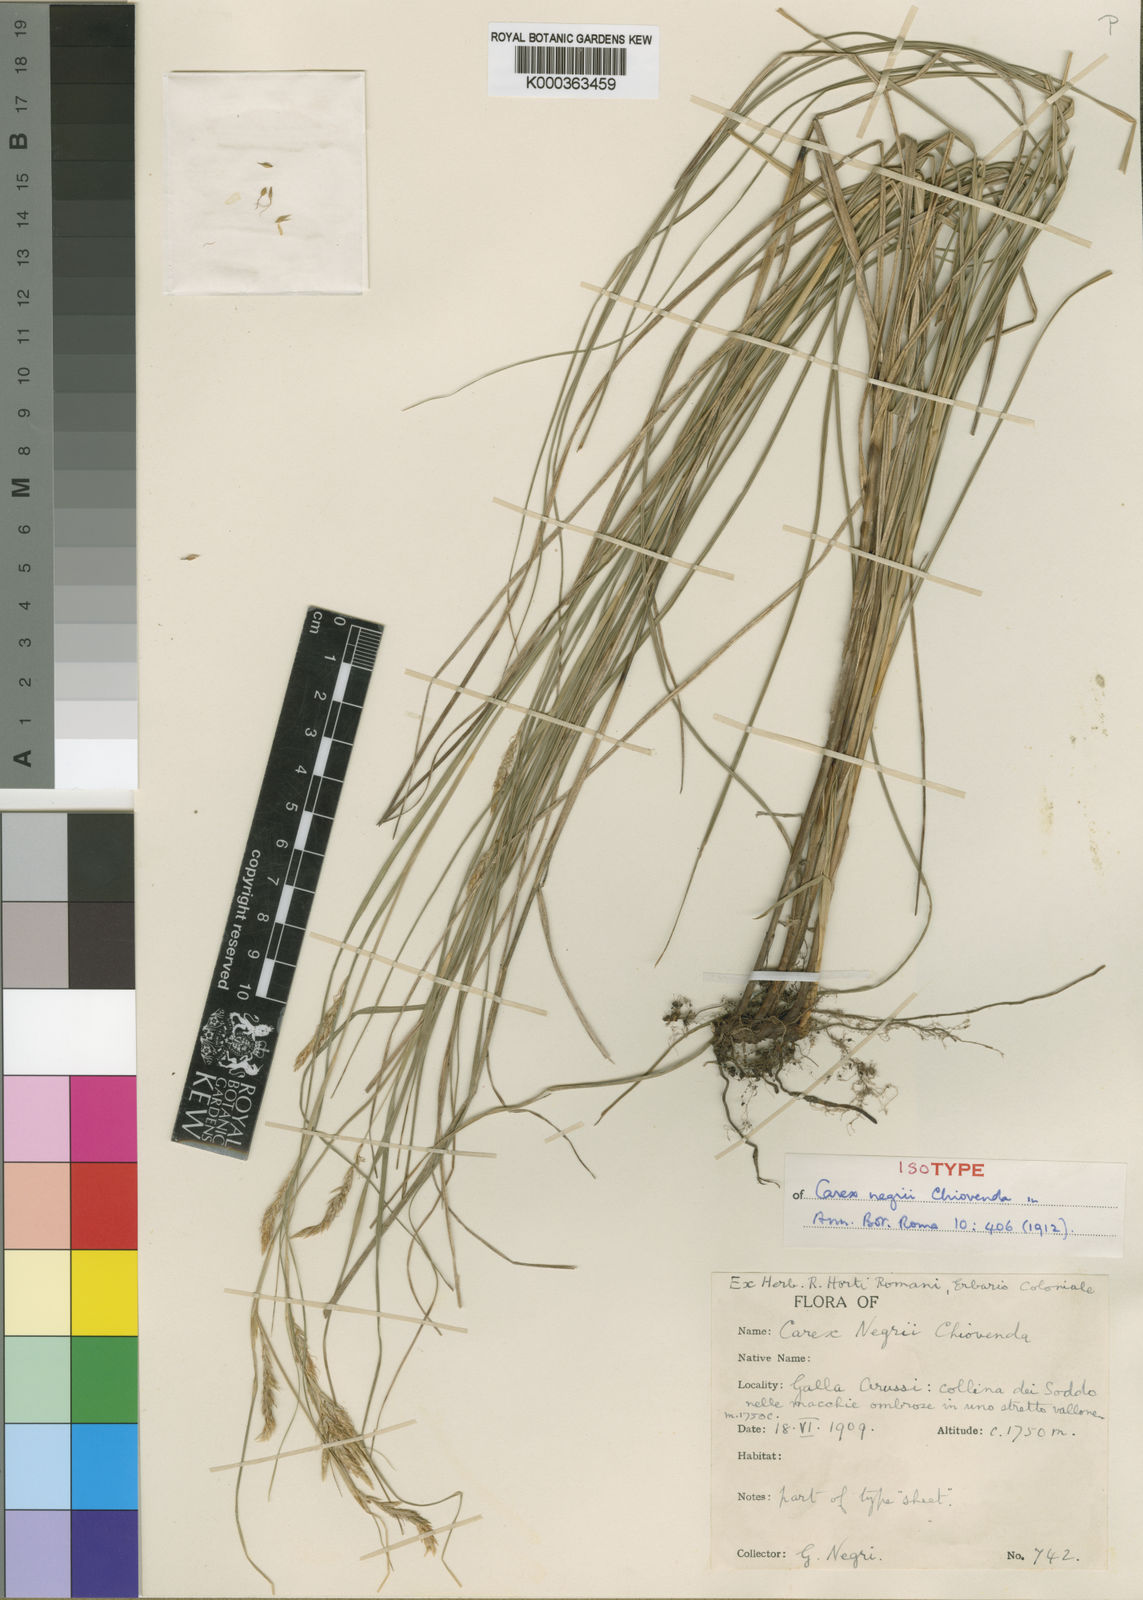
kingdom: Plantae
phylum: Tracheophyta
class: Liliopsida
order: Poales
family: Cyperaceae
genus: Carex
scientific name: Carex negrii
